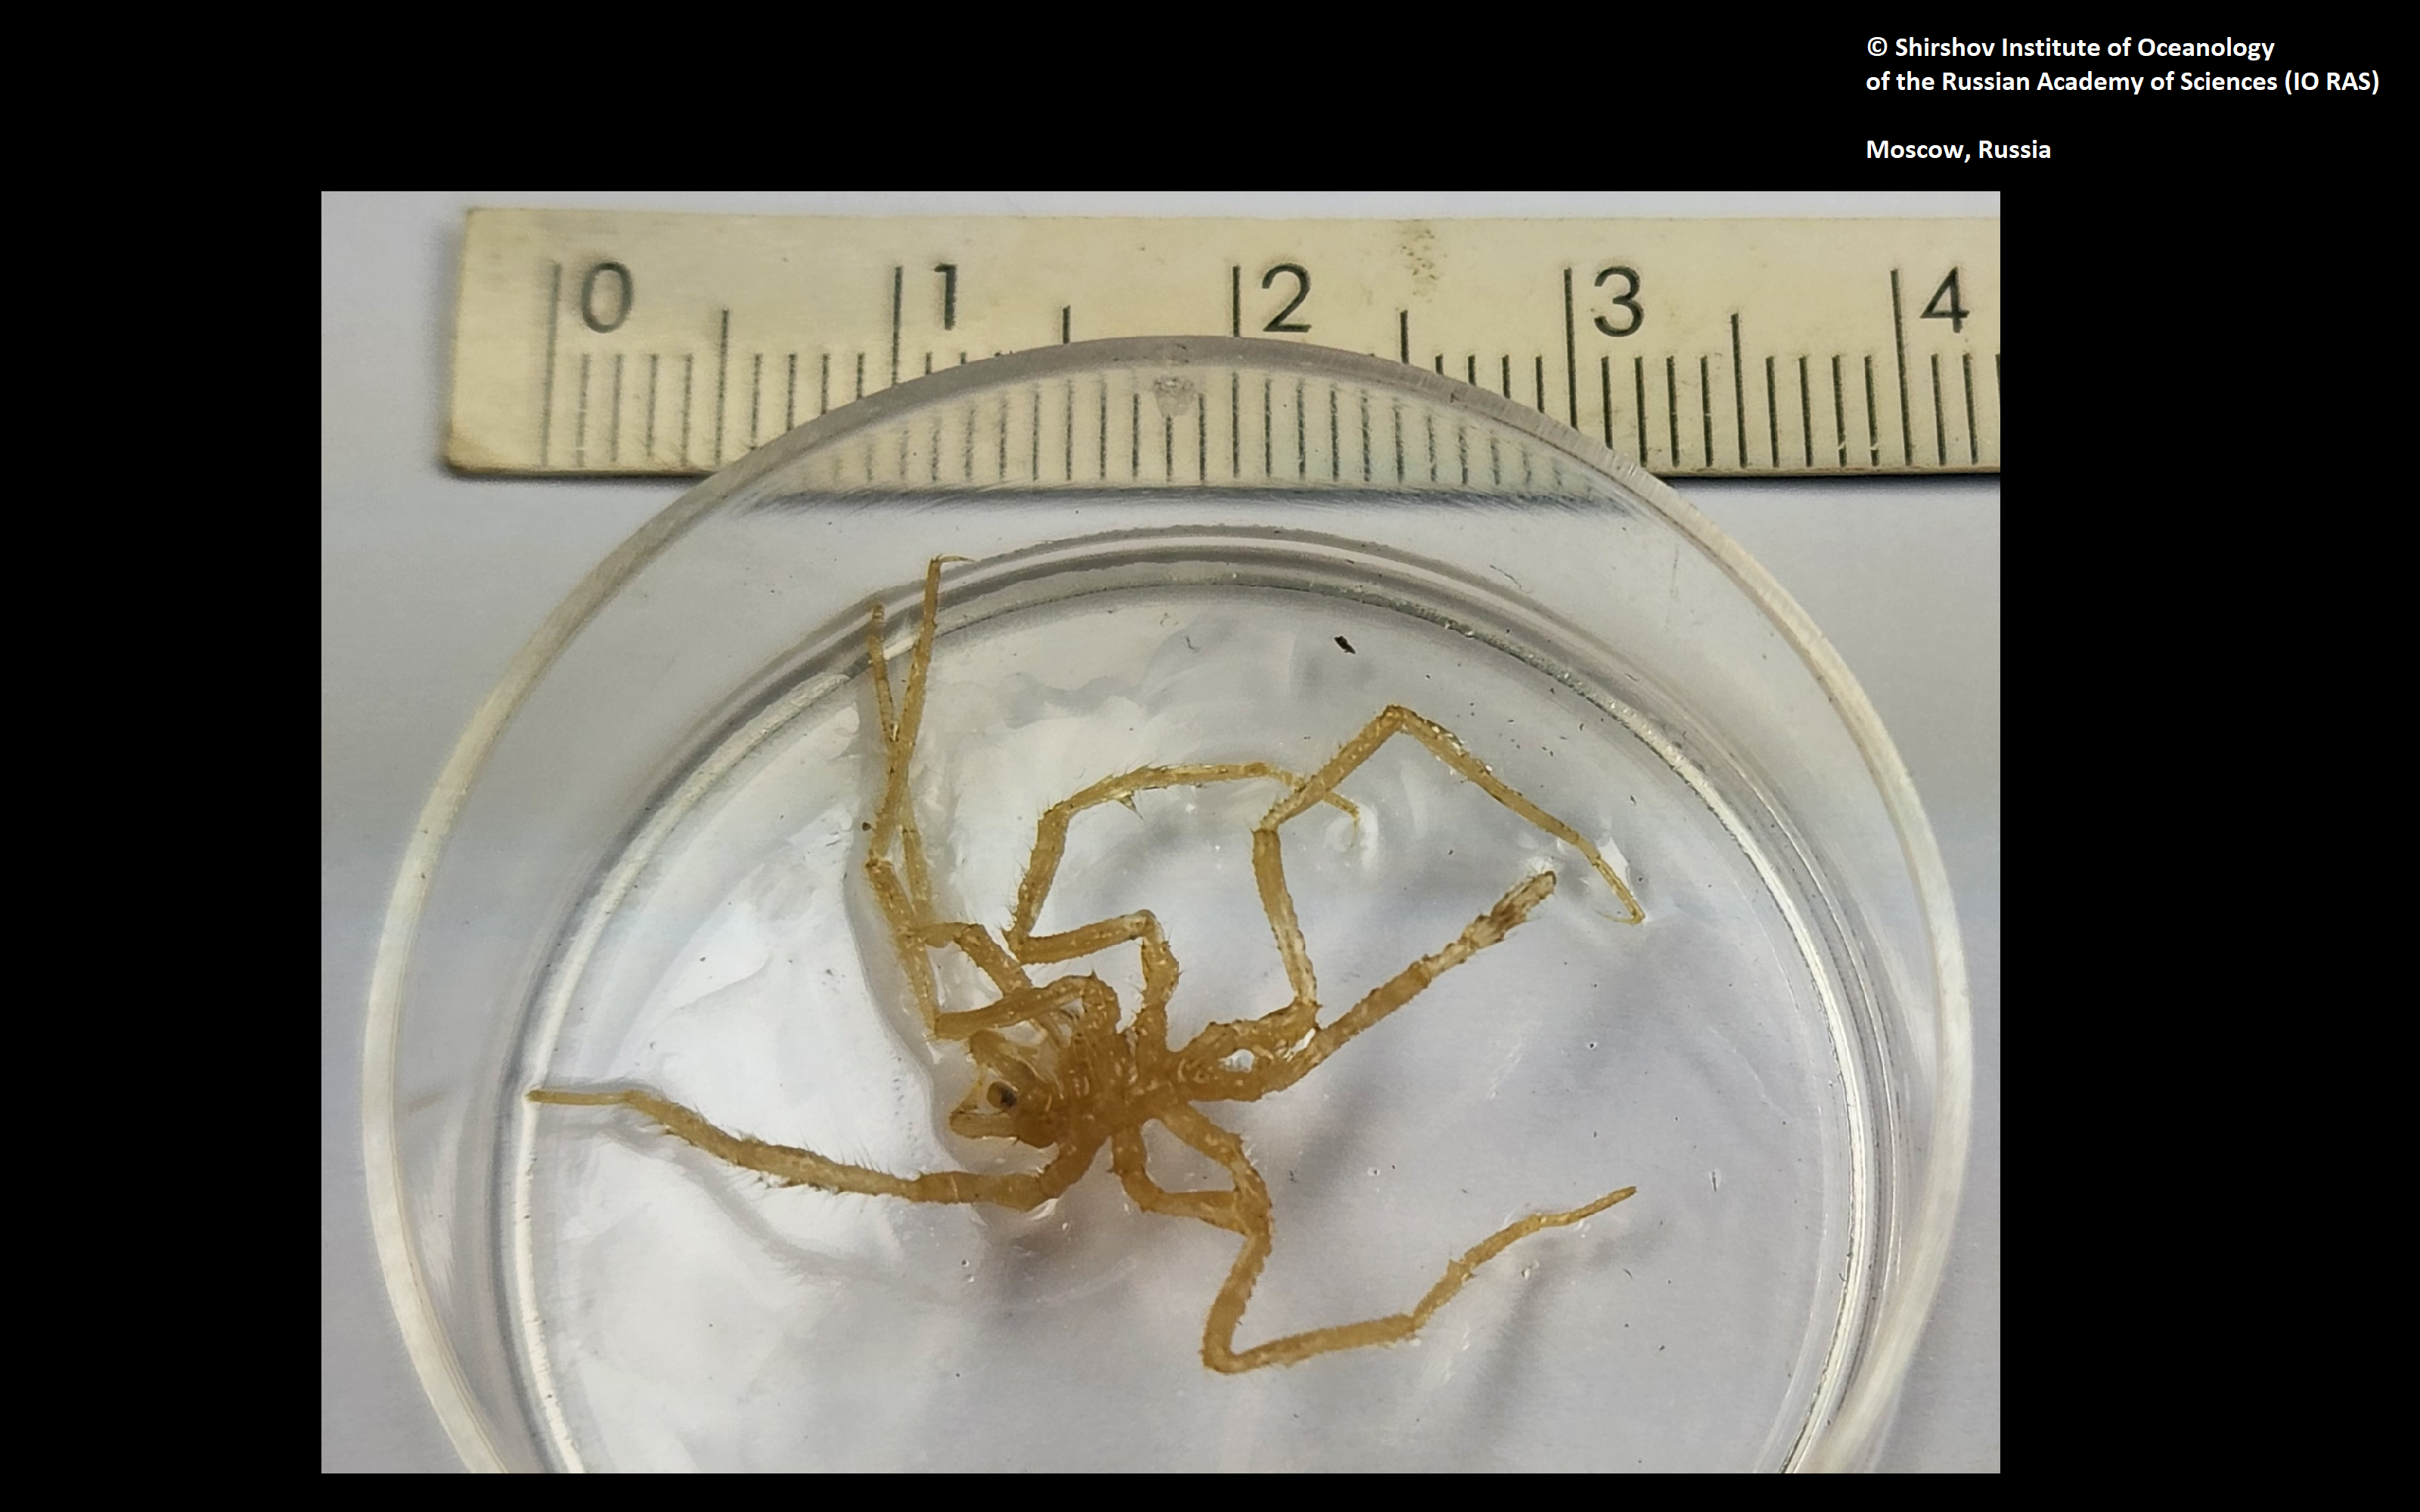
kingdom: Animalia
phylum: Arthropoda
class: Pycnogonida
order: Pantopoda
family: Nymphonidae
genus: Nymphon
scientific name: Nymphon laneum
